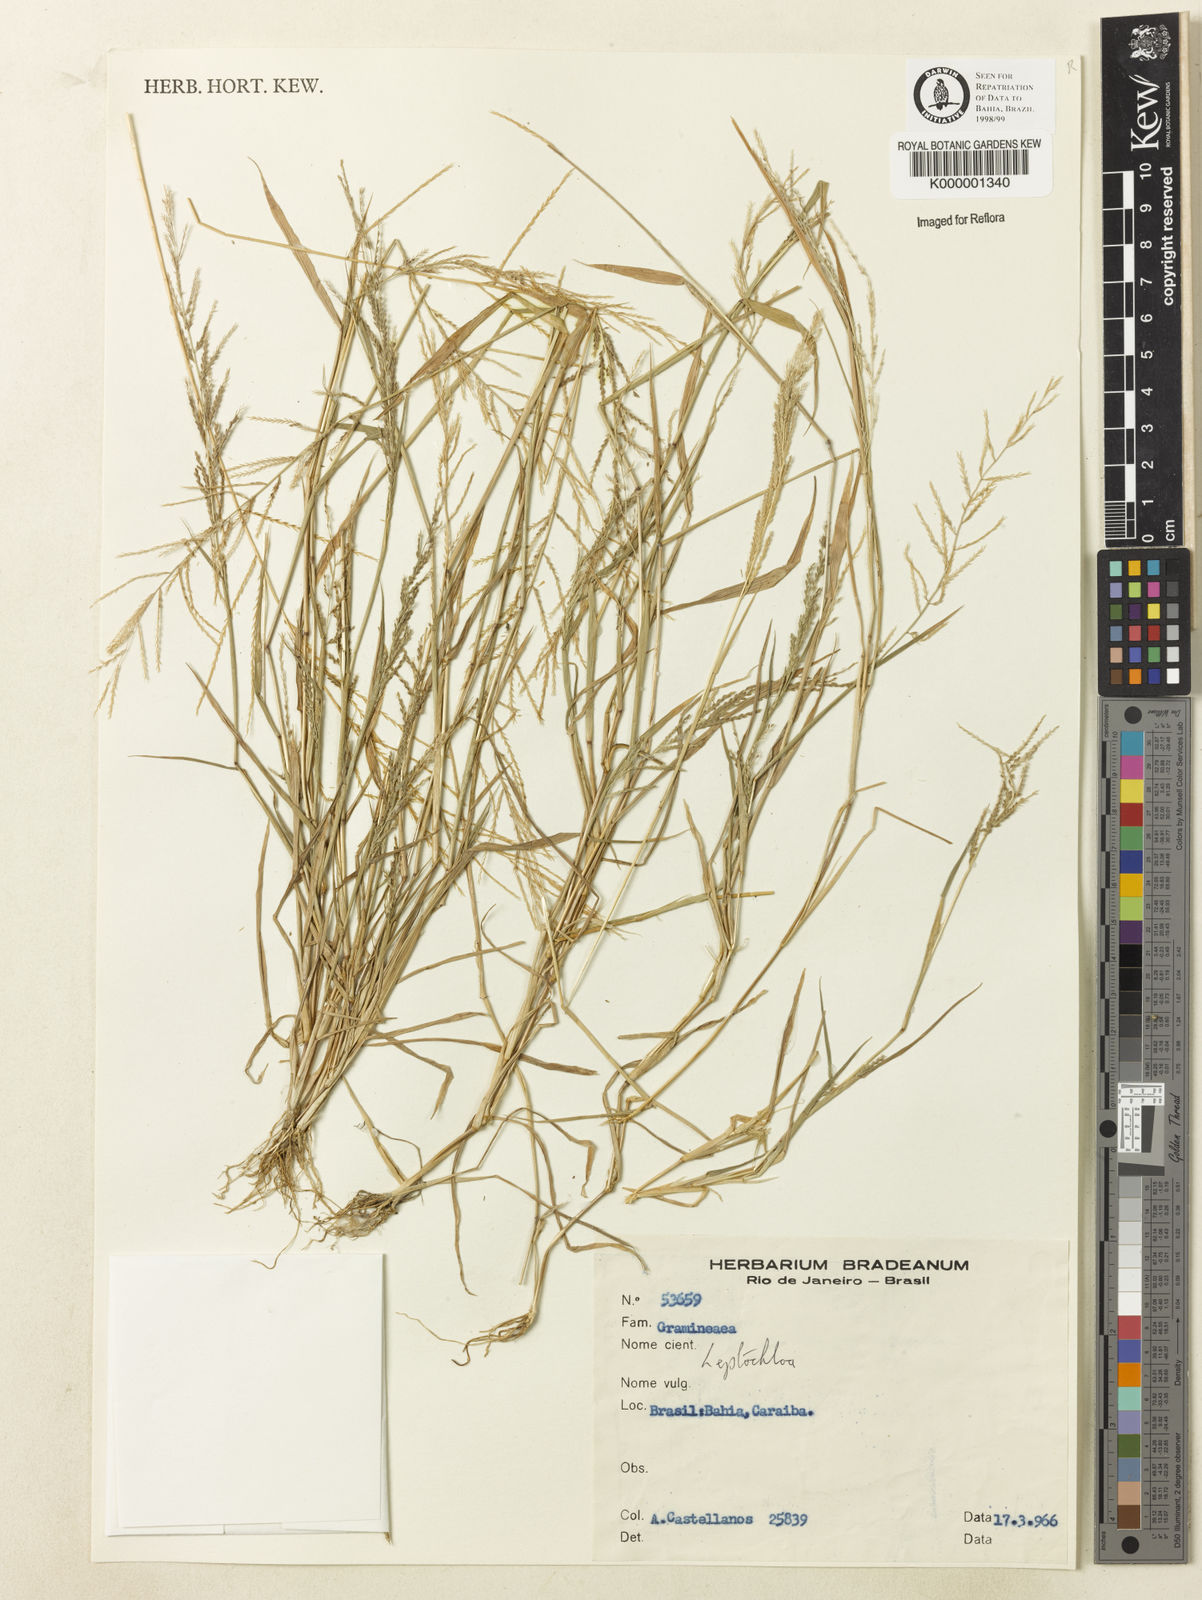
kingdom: Plantae
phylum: Tracheophyta
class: Liliopsida
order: Poales
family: Poaceae
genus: Leptochloa
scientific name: Leptochloa mucronata
